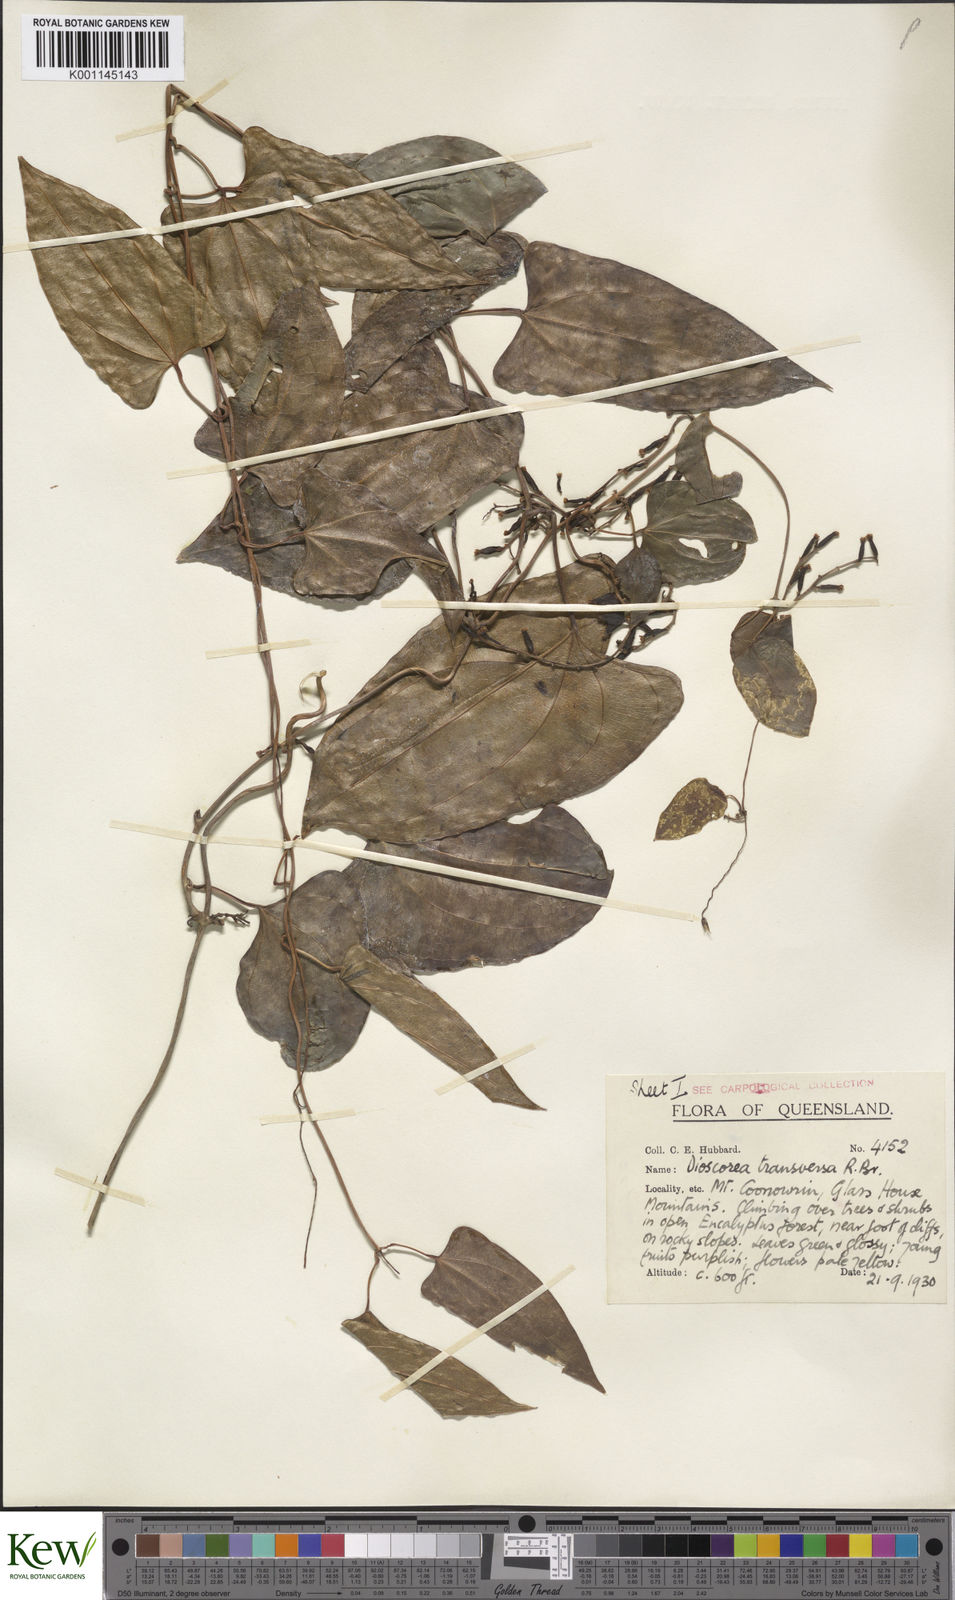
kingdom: Plantae
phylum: Tracheophyta
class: Liliopsida
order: Dioscoreales
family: Dioscoreaceae
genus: Dioscorea
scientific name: Dioscorea transversa
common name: Long yam
